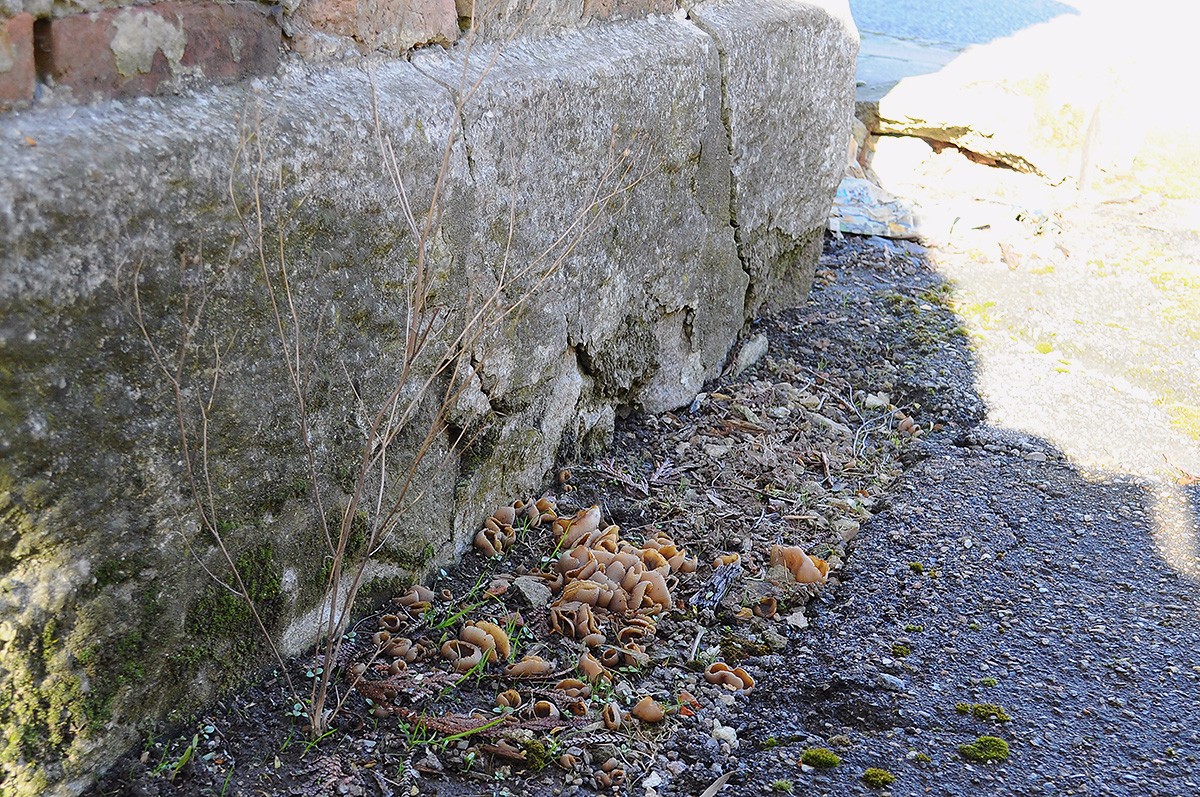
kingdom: Fungi
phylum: Ascomycota
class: Pezizomycetes
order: Pezizales
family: Pezizaceae
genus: Peziza
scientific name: Peziza varia
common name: Ved-bægersvamp
